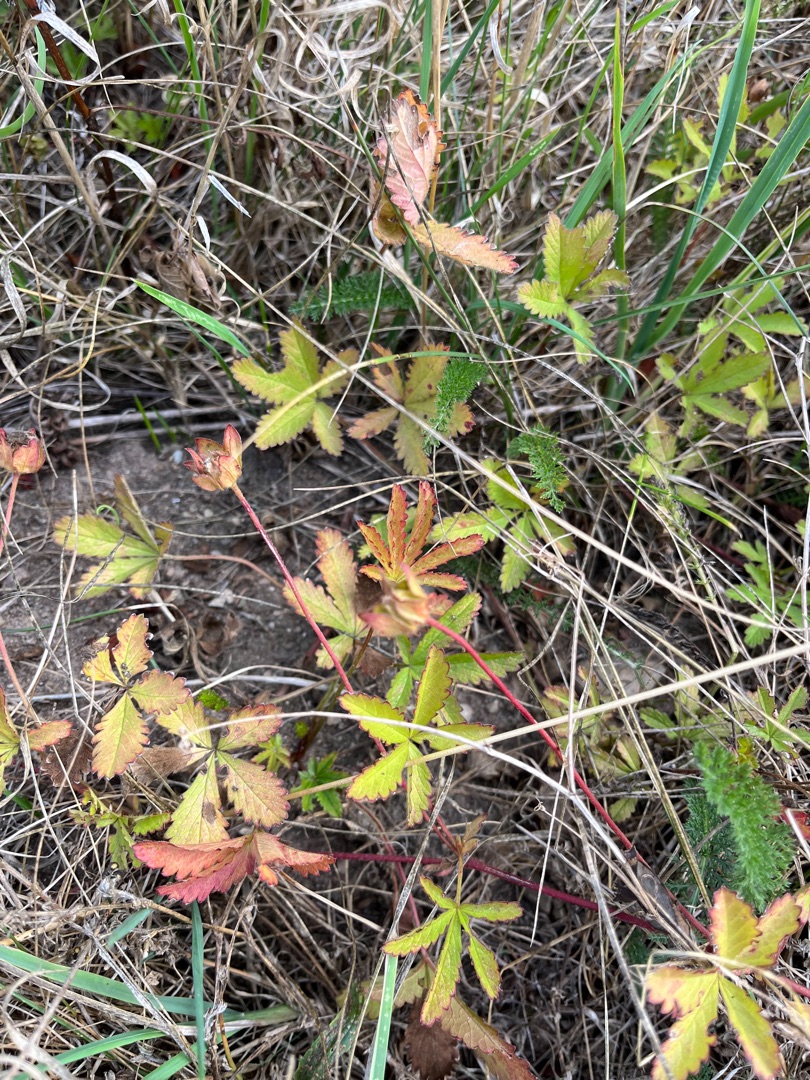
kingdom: Plantae
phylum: Tracheophyta
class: Magnoliopsida
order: Rosales
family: Rosaceae
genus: Potentilla
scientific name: Potentilla reptans
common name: Krybende potentil
